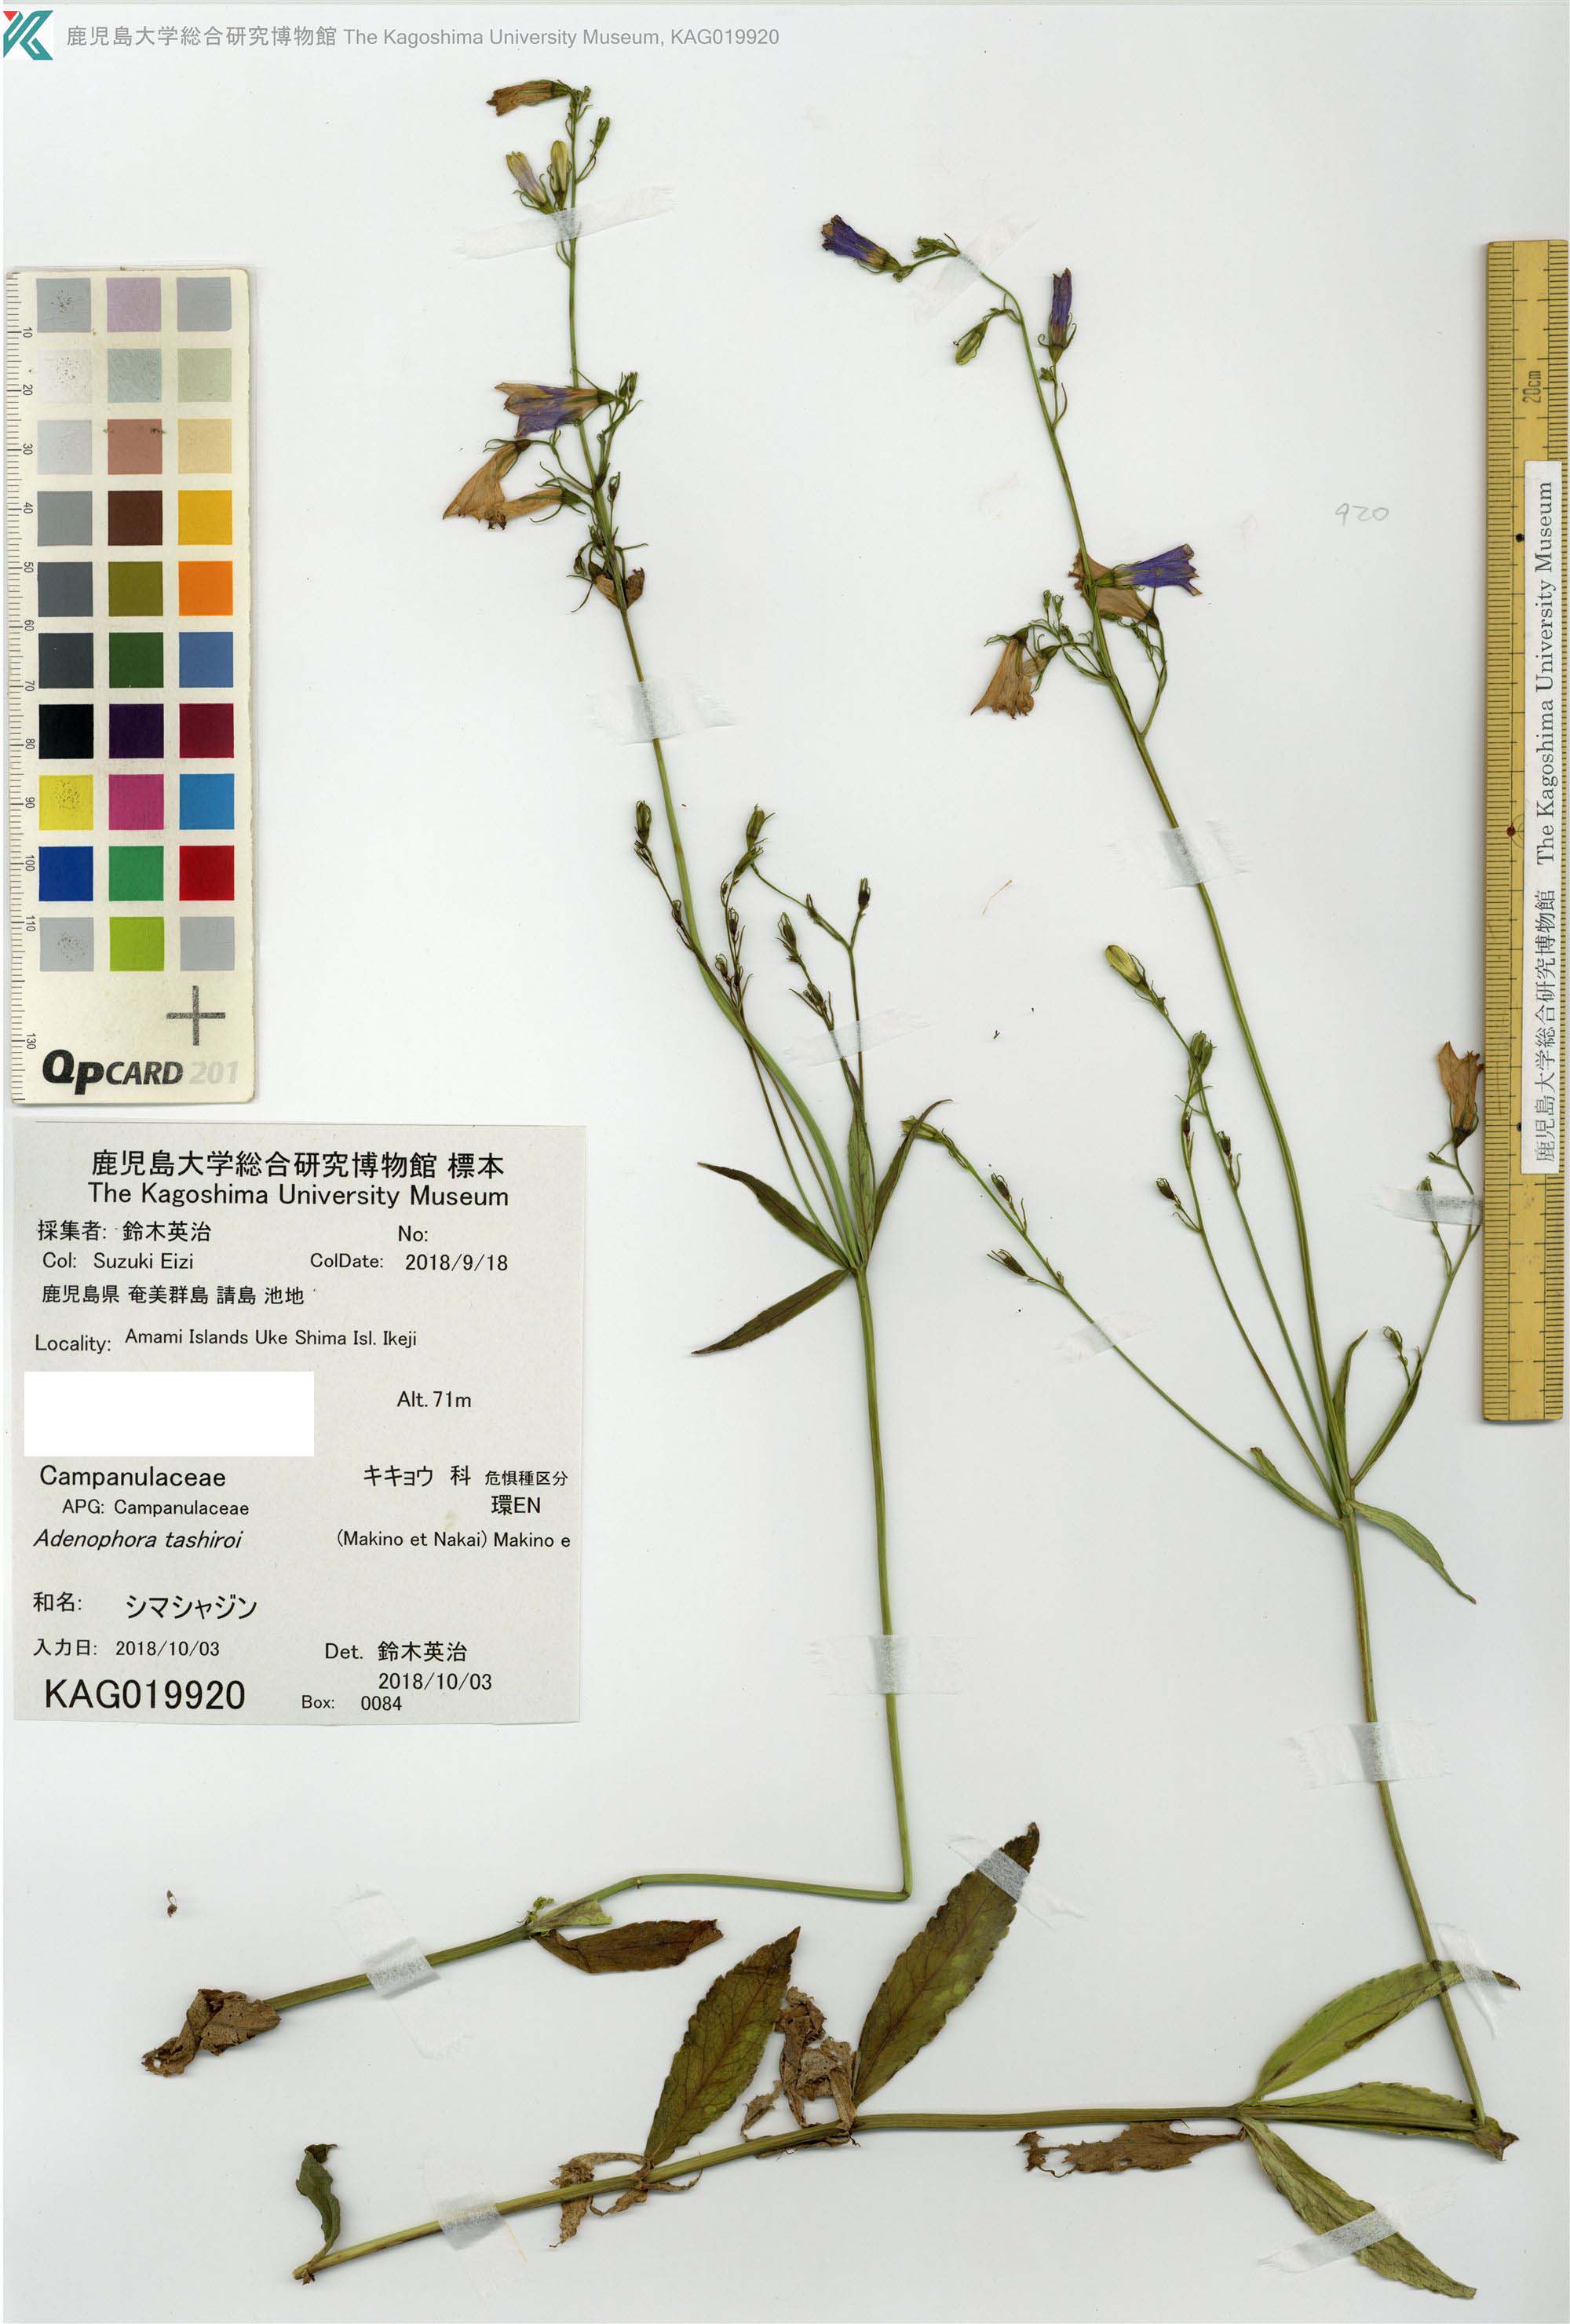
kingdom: Plantae
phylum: Tracheophyta
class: Magnoliopsida
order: Asterales
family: Campanulaceae
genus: Adenophora
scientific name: Adenophora triphylla
